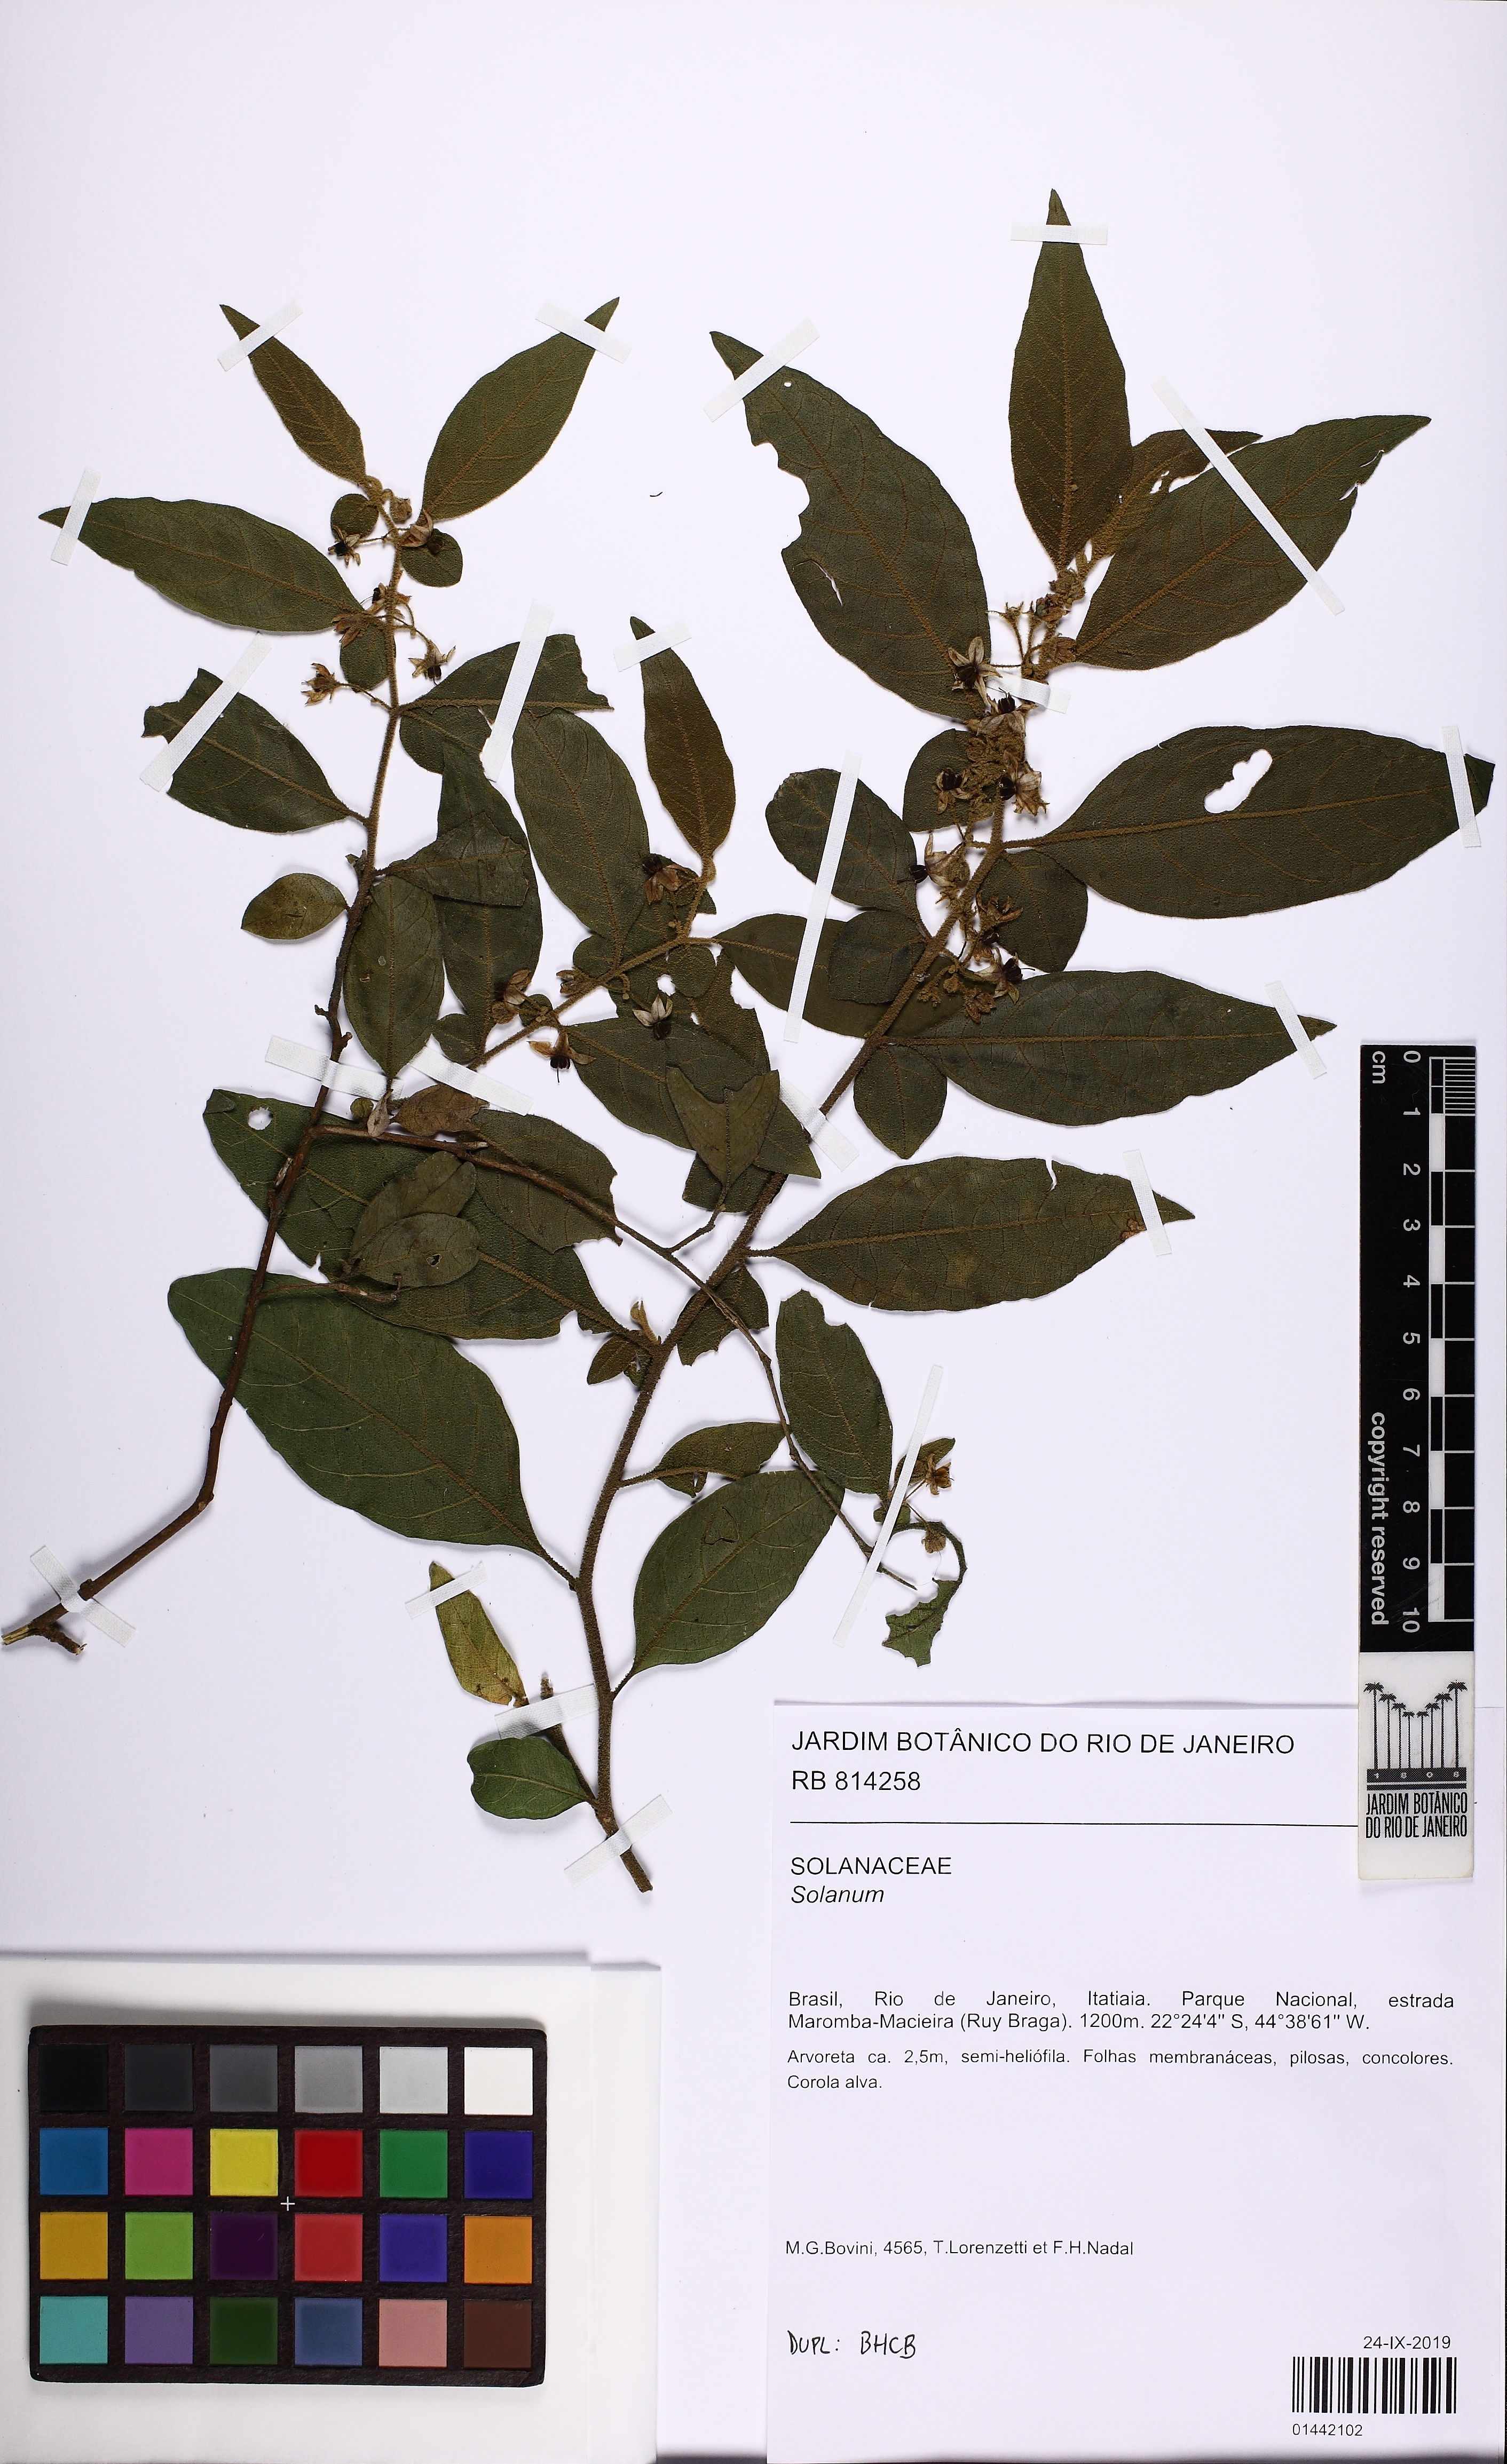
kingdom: Plantae
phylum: Tracheophyta
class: Magnoliopsida
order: Solanales
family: Solanaceae
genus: Solanum
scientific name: Solanum
